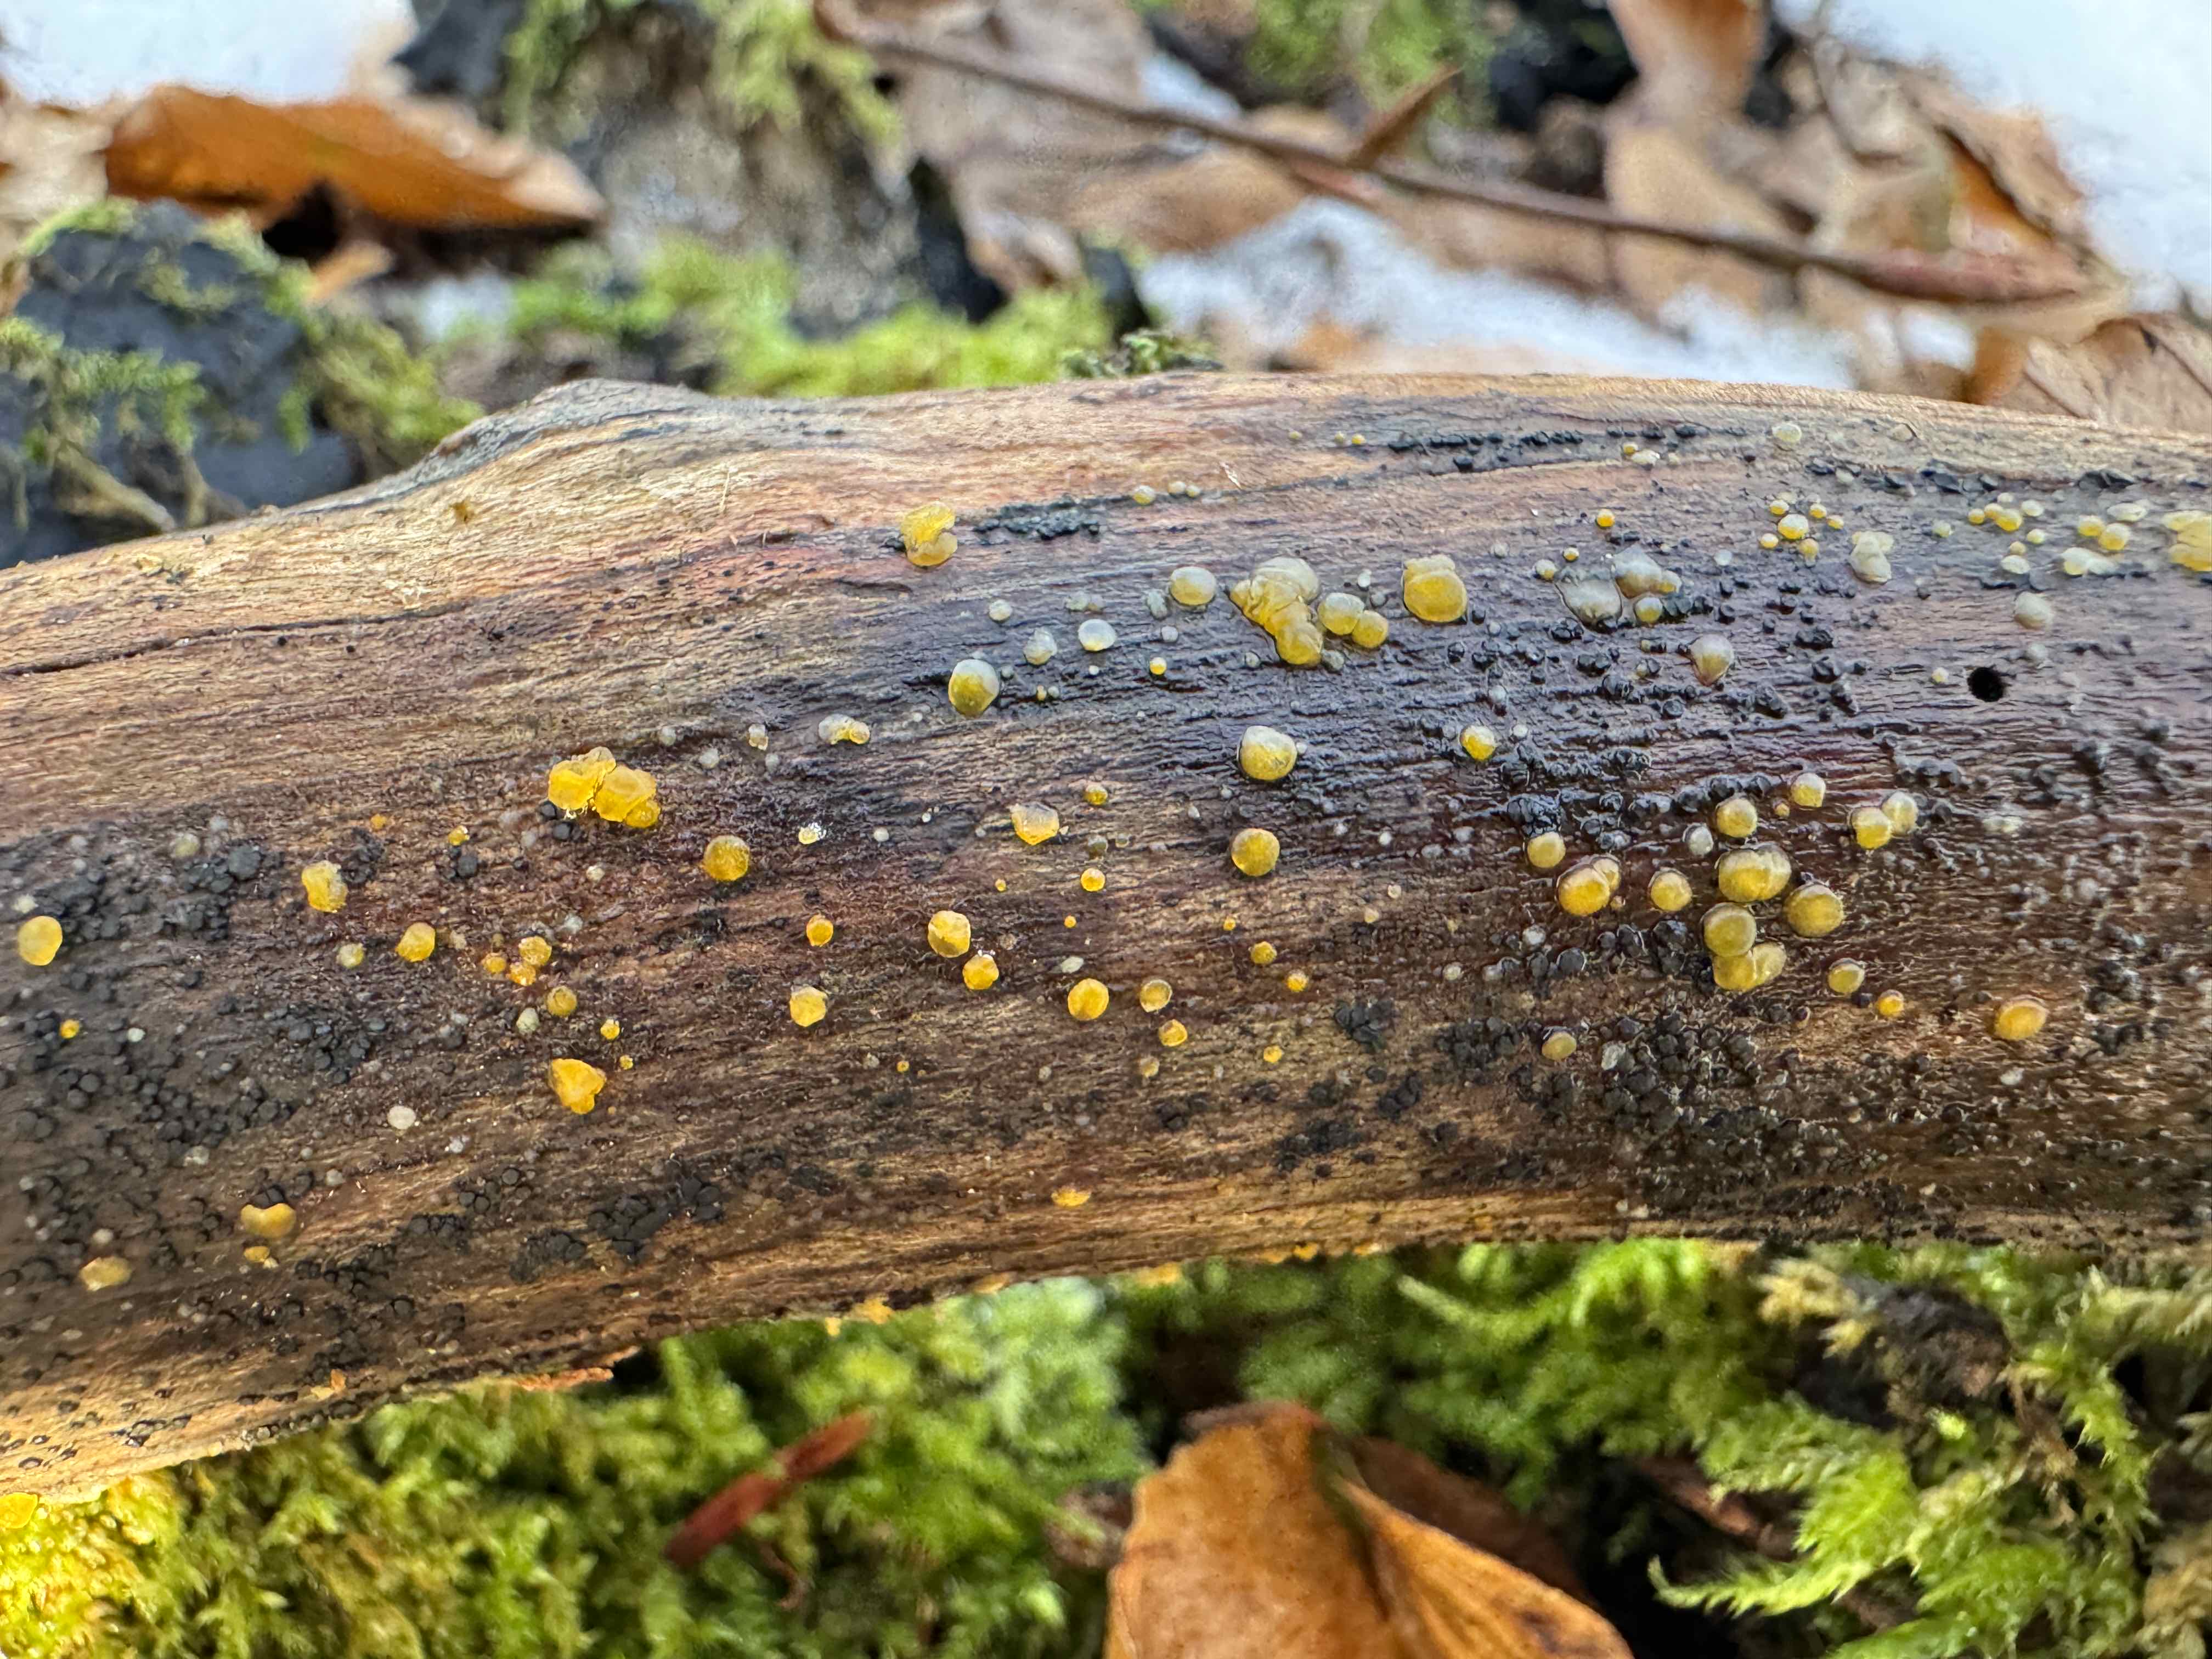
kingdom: Fungi
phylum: Basidiomycota
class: Dacrymycetes
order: Dacrymycetales
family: Dacrymycetaceae
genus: Dacrymyces
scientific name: Dacrymyces stillatus
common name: almindelig tåresvamp
